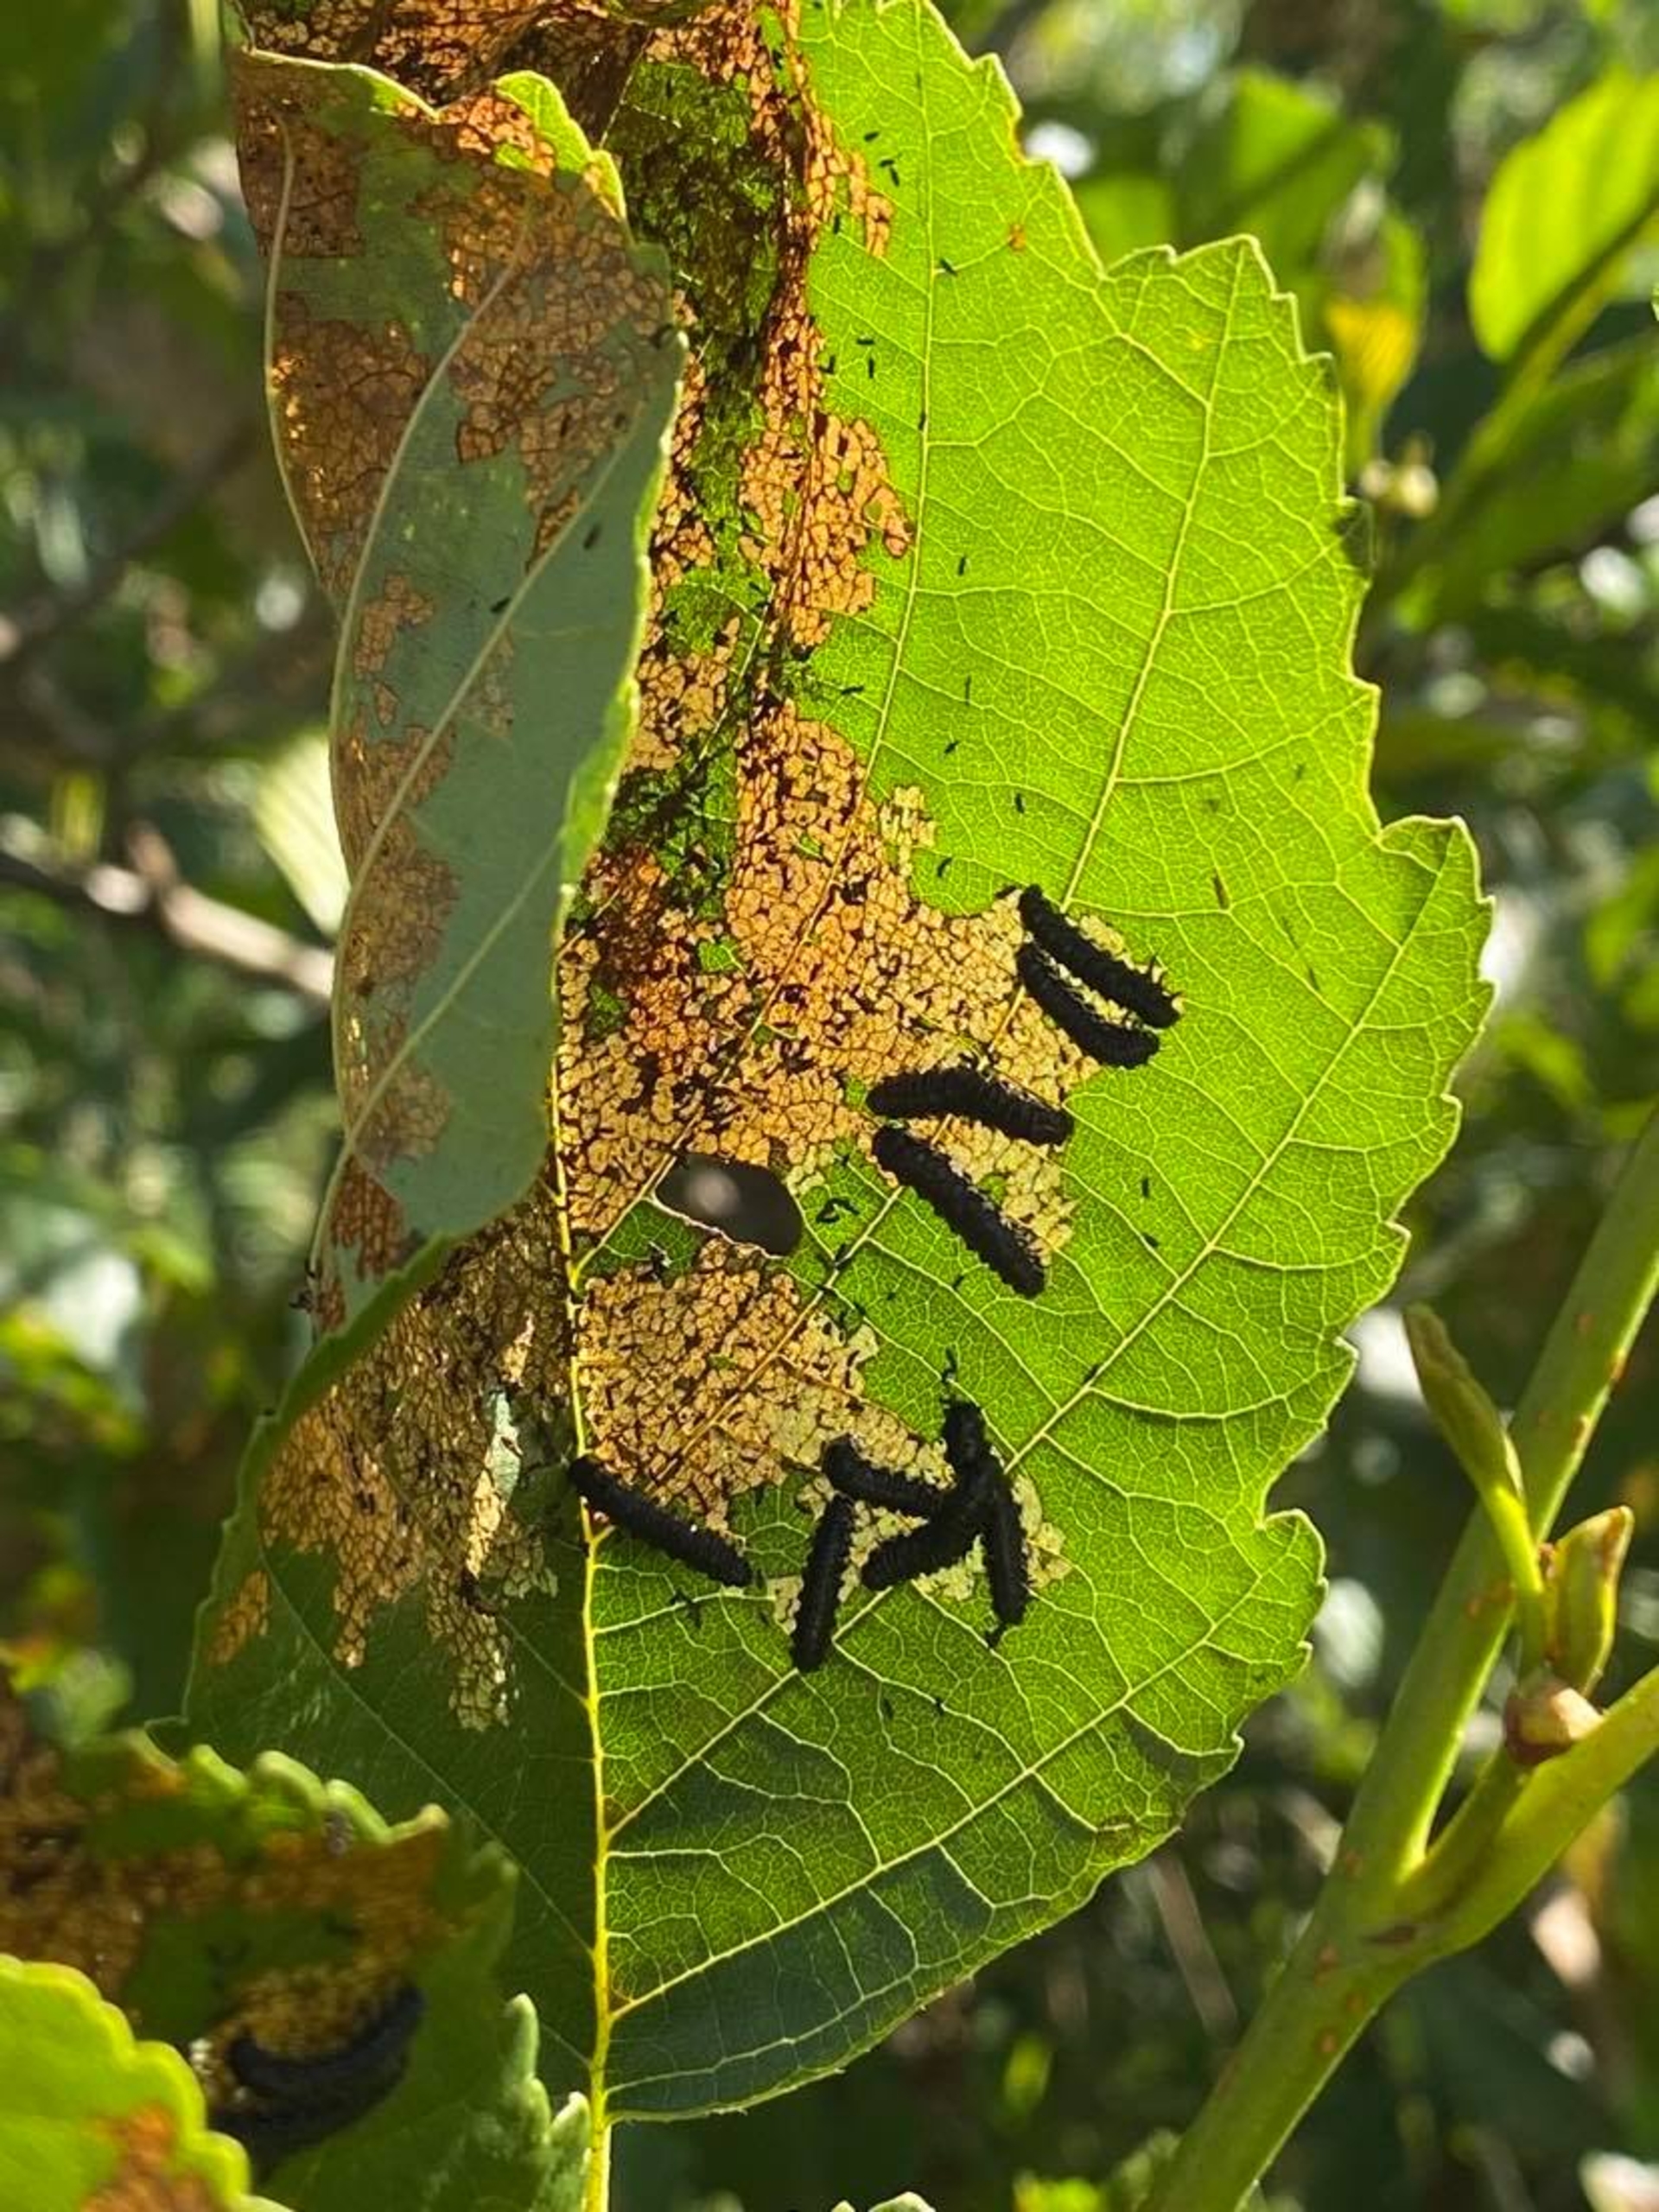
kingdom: Animalia
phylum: Arthropoda
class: Insecta
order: Coleoptera
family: Chrysomelidae
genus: Agelastica
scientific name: Agelastica alni
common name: Ellebladbille
